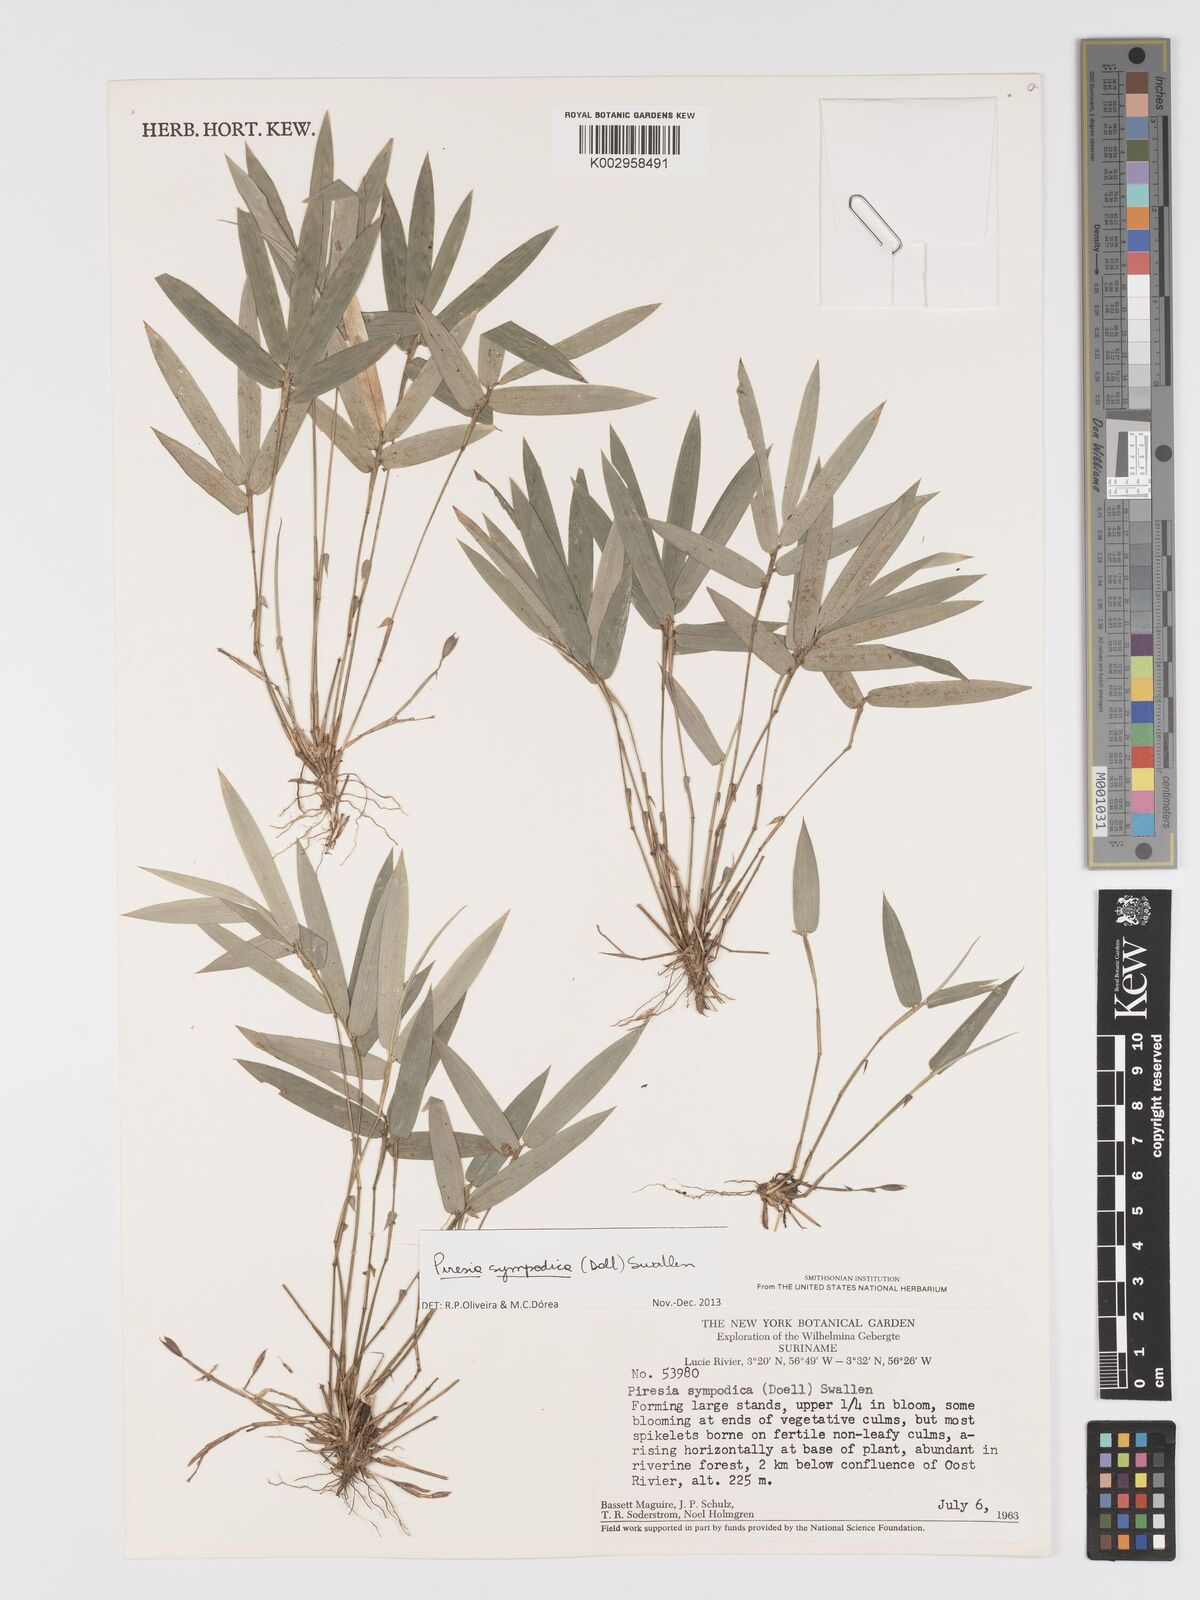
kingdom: Plantae
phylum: Tracheophyta
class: Liliopsida
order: Poales
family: Poaceae
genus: Piresia
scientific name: Piresia sympodica
